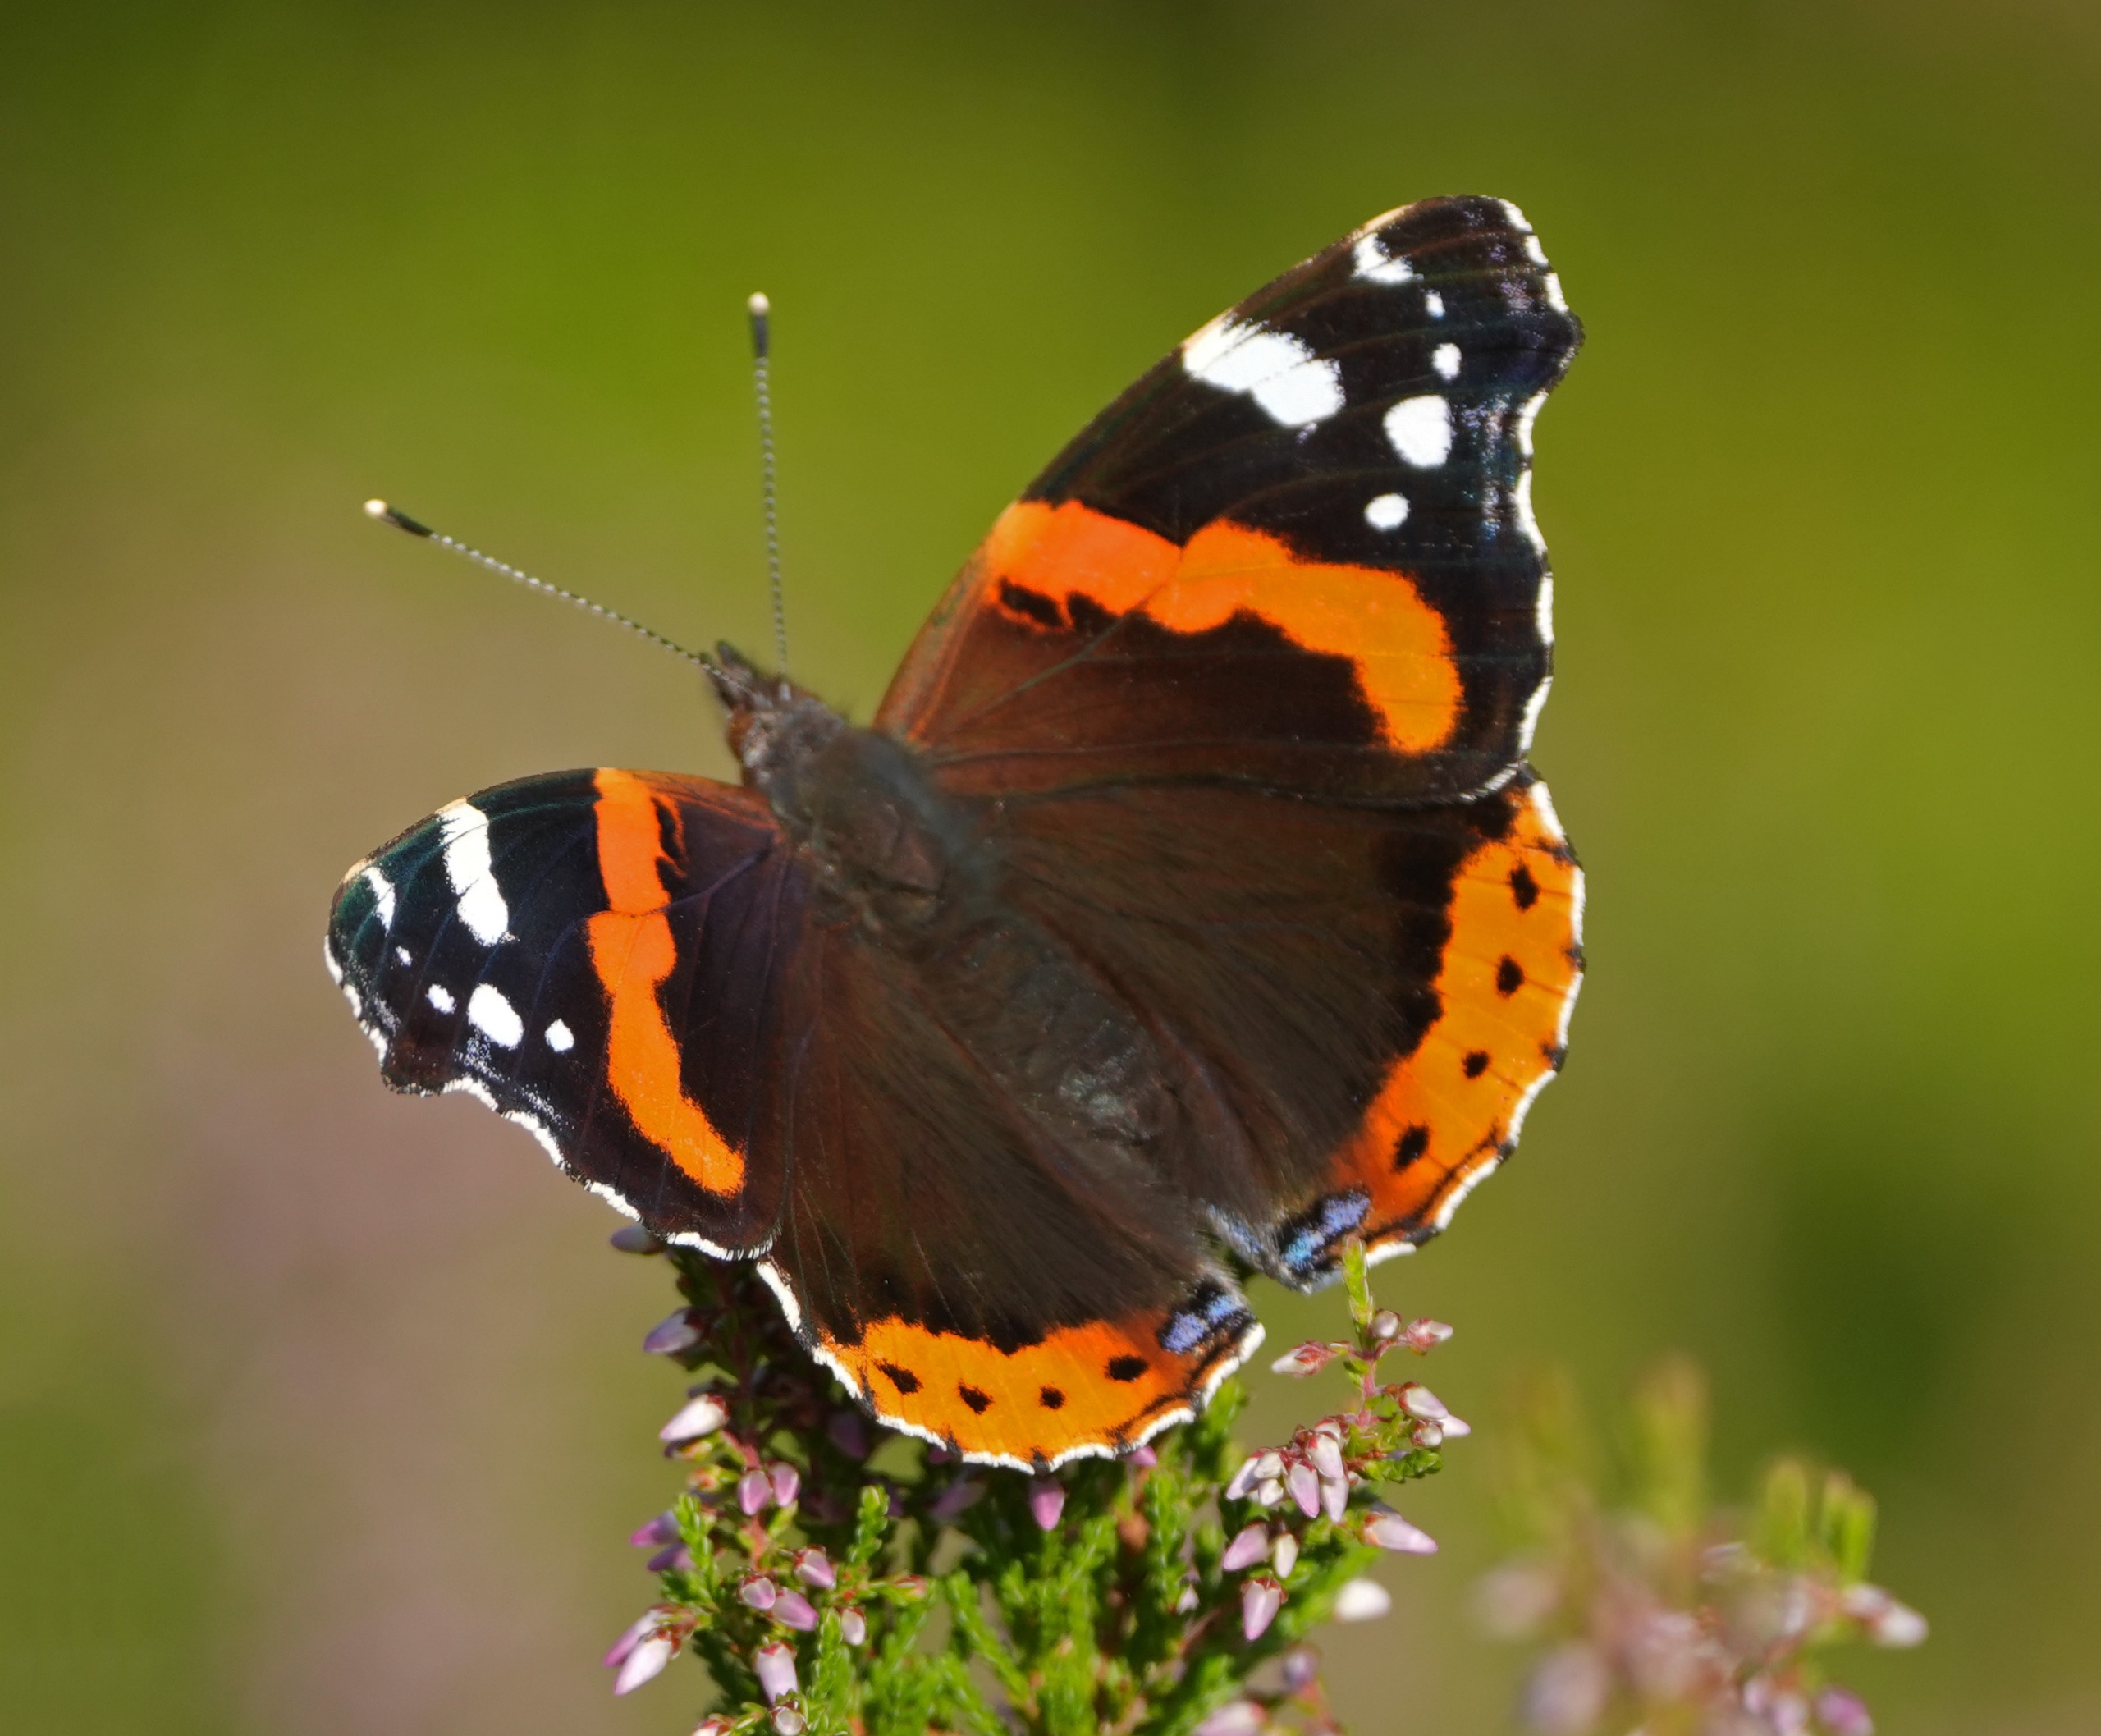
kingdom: Animalia
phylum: Arthropoda
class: Insecta
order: Lepidoptera
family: Nymphalidae
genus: Vanessa
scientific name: Vanessa atalanta
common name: Admiral
